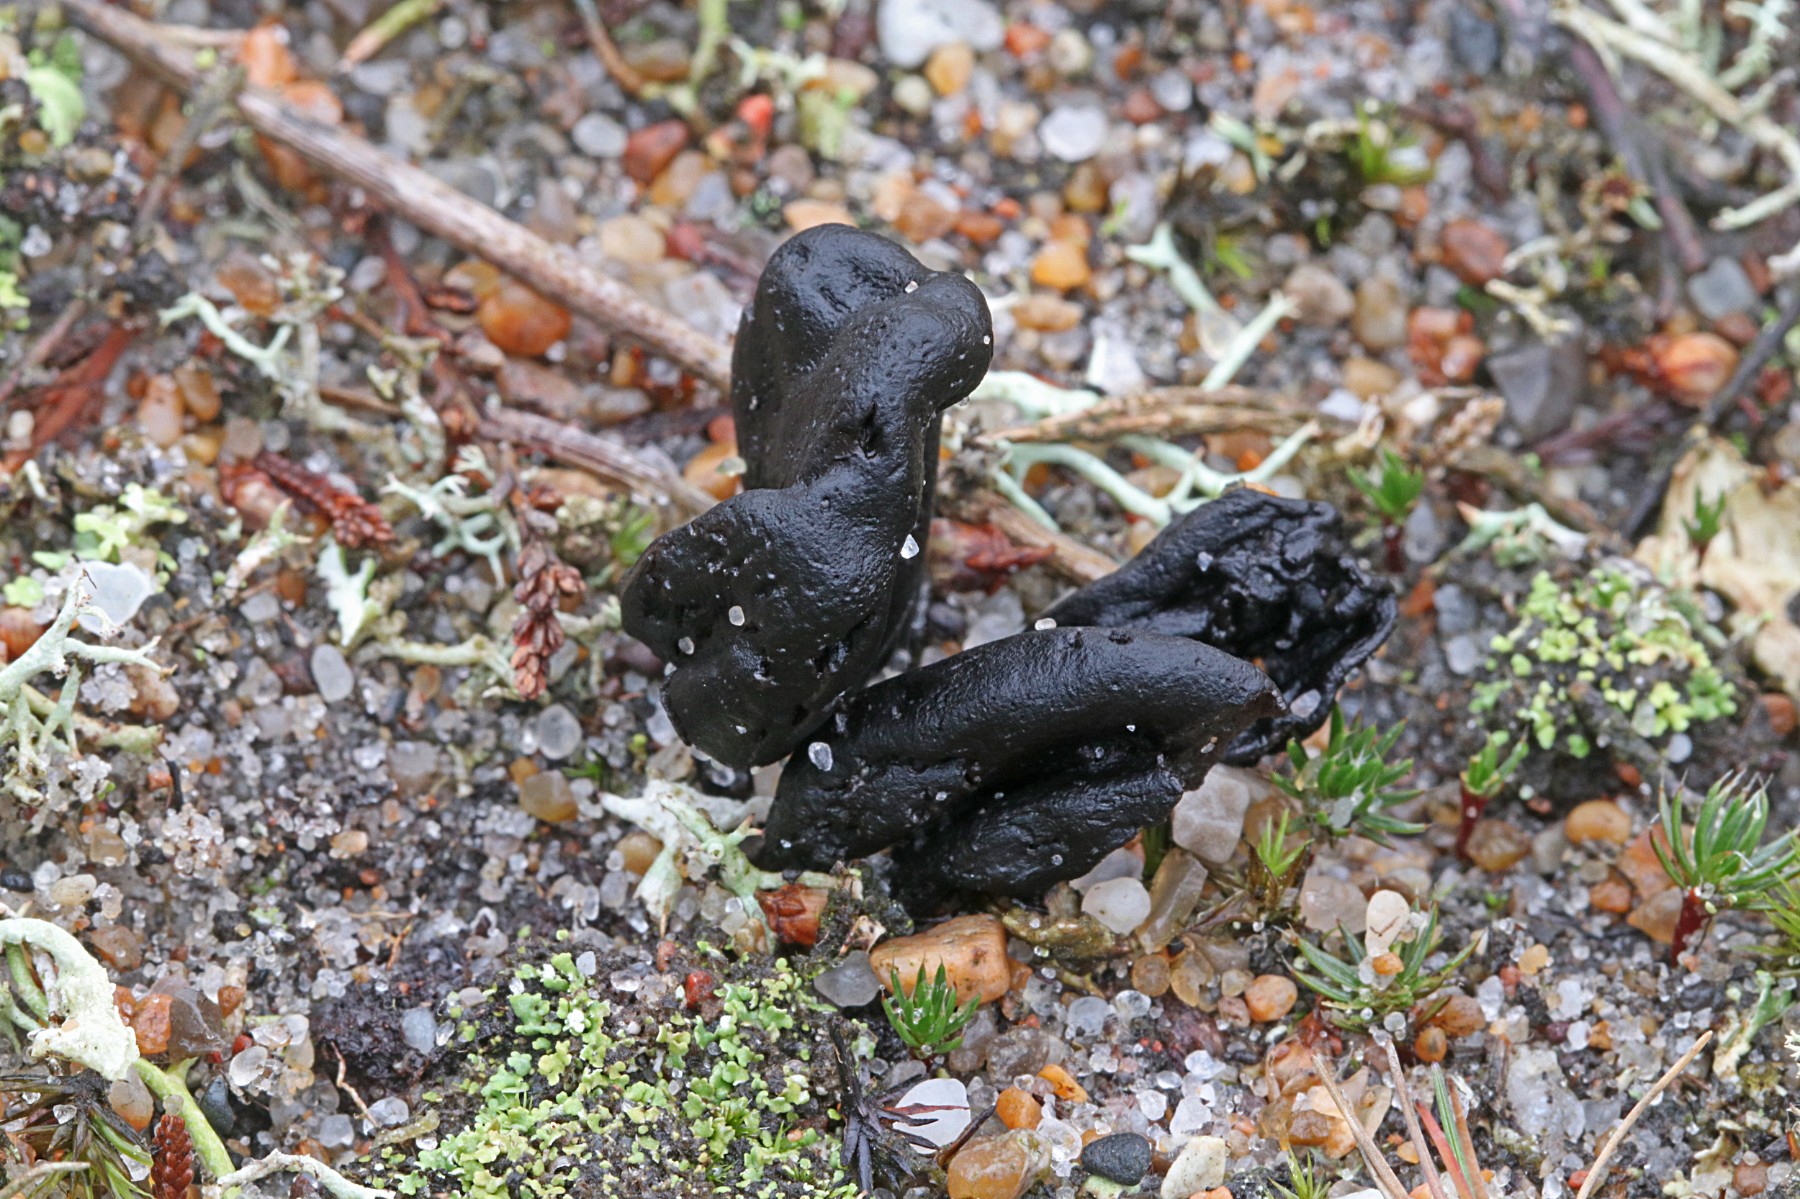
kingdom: Fungi
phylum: Ascomycota
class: Geoglossomycetes
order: Geoglossales
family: Geoglossaceae
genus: Sabuloglossum
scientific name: Sabuloglossum arenarium
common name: klit-jordtunge
